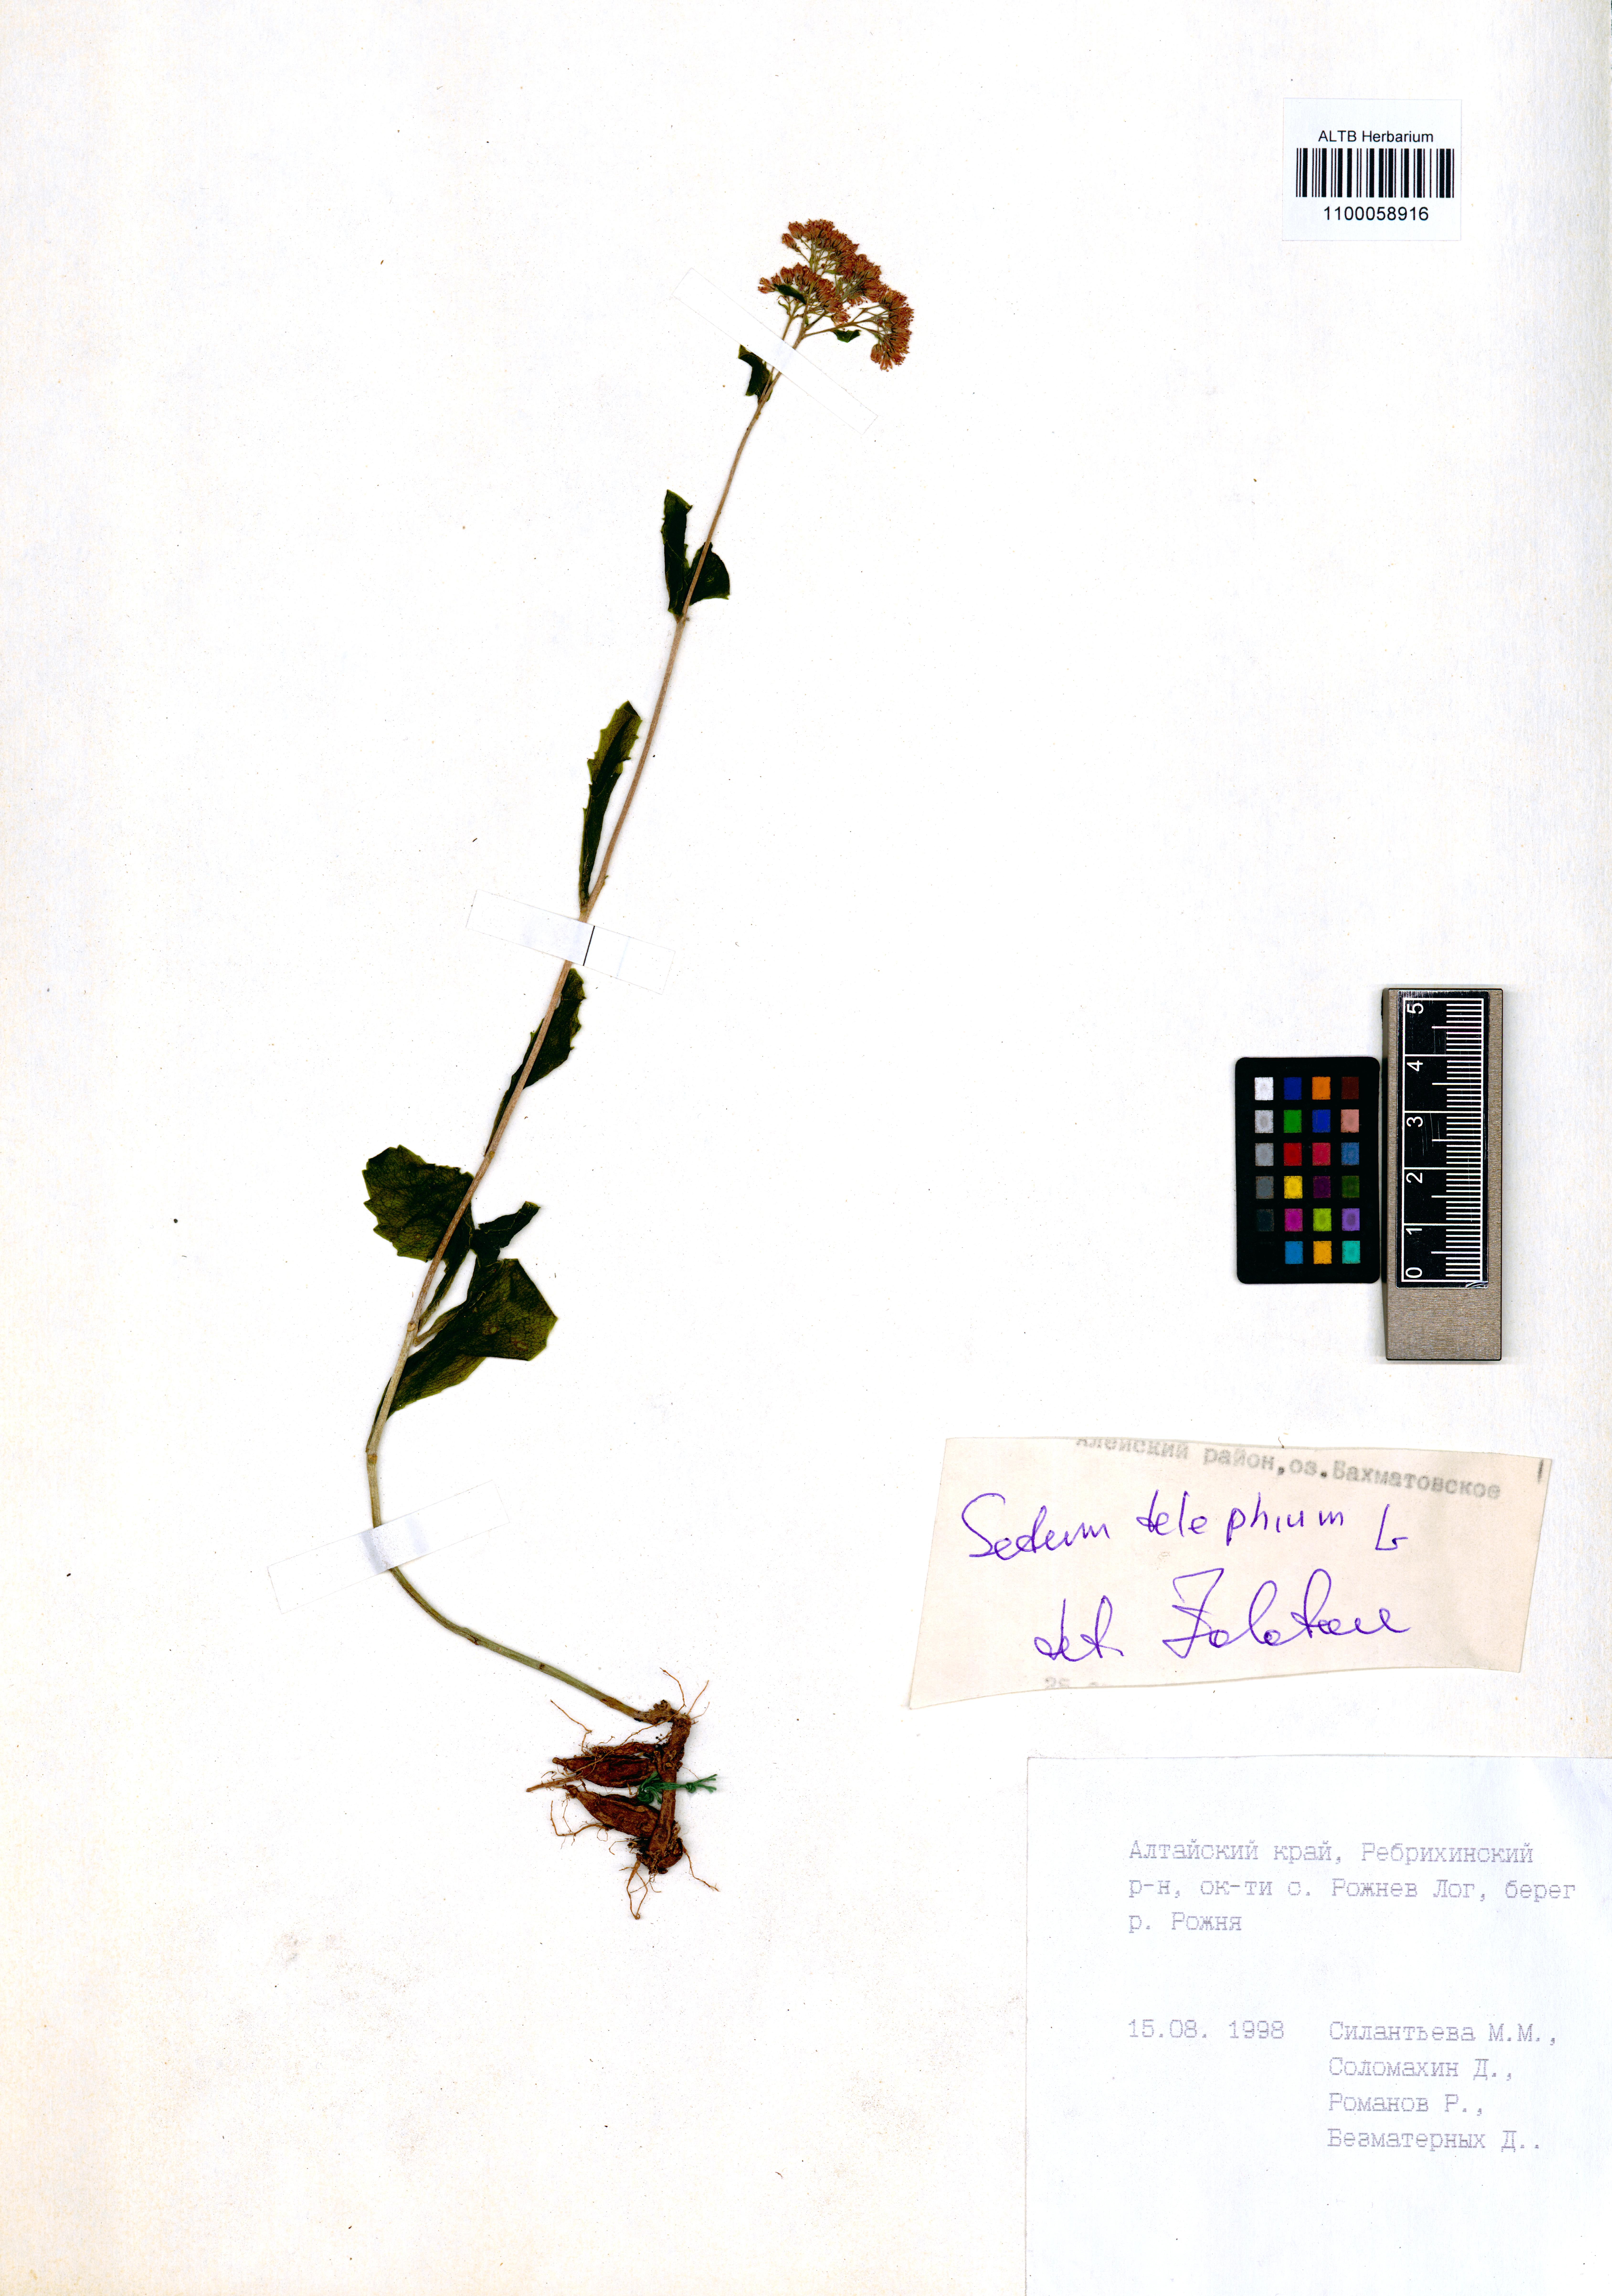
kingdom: Plantae
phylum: Tracheophyta
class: Magnoliopsida
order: Saxifragales
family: Crassulaceae
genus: Hylotelephium
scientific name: Hylotelephium telephium
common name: Live-forever
